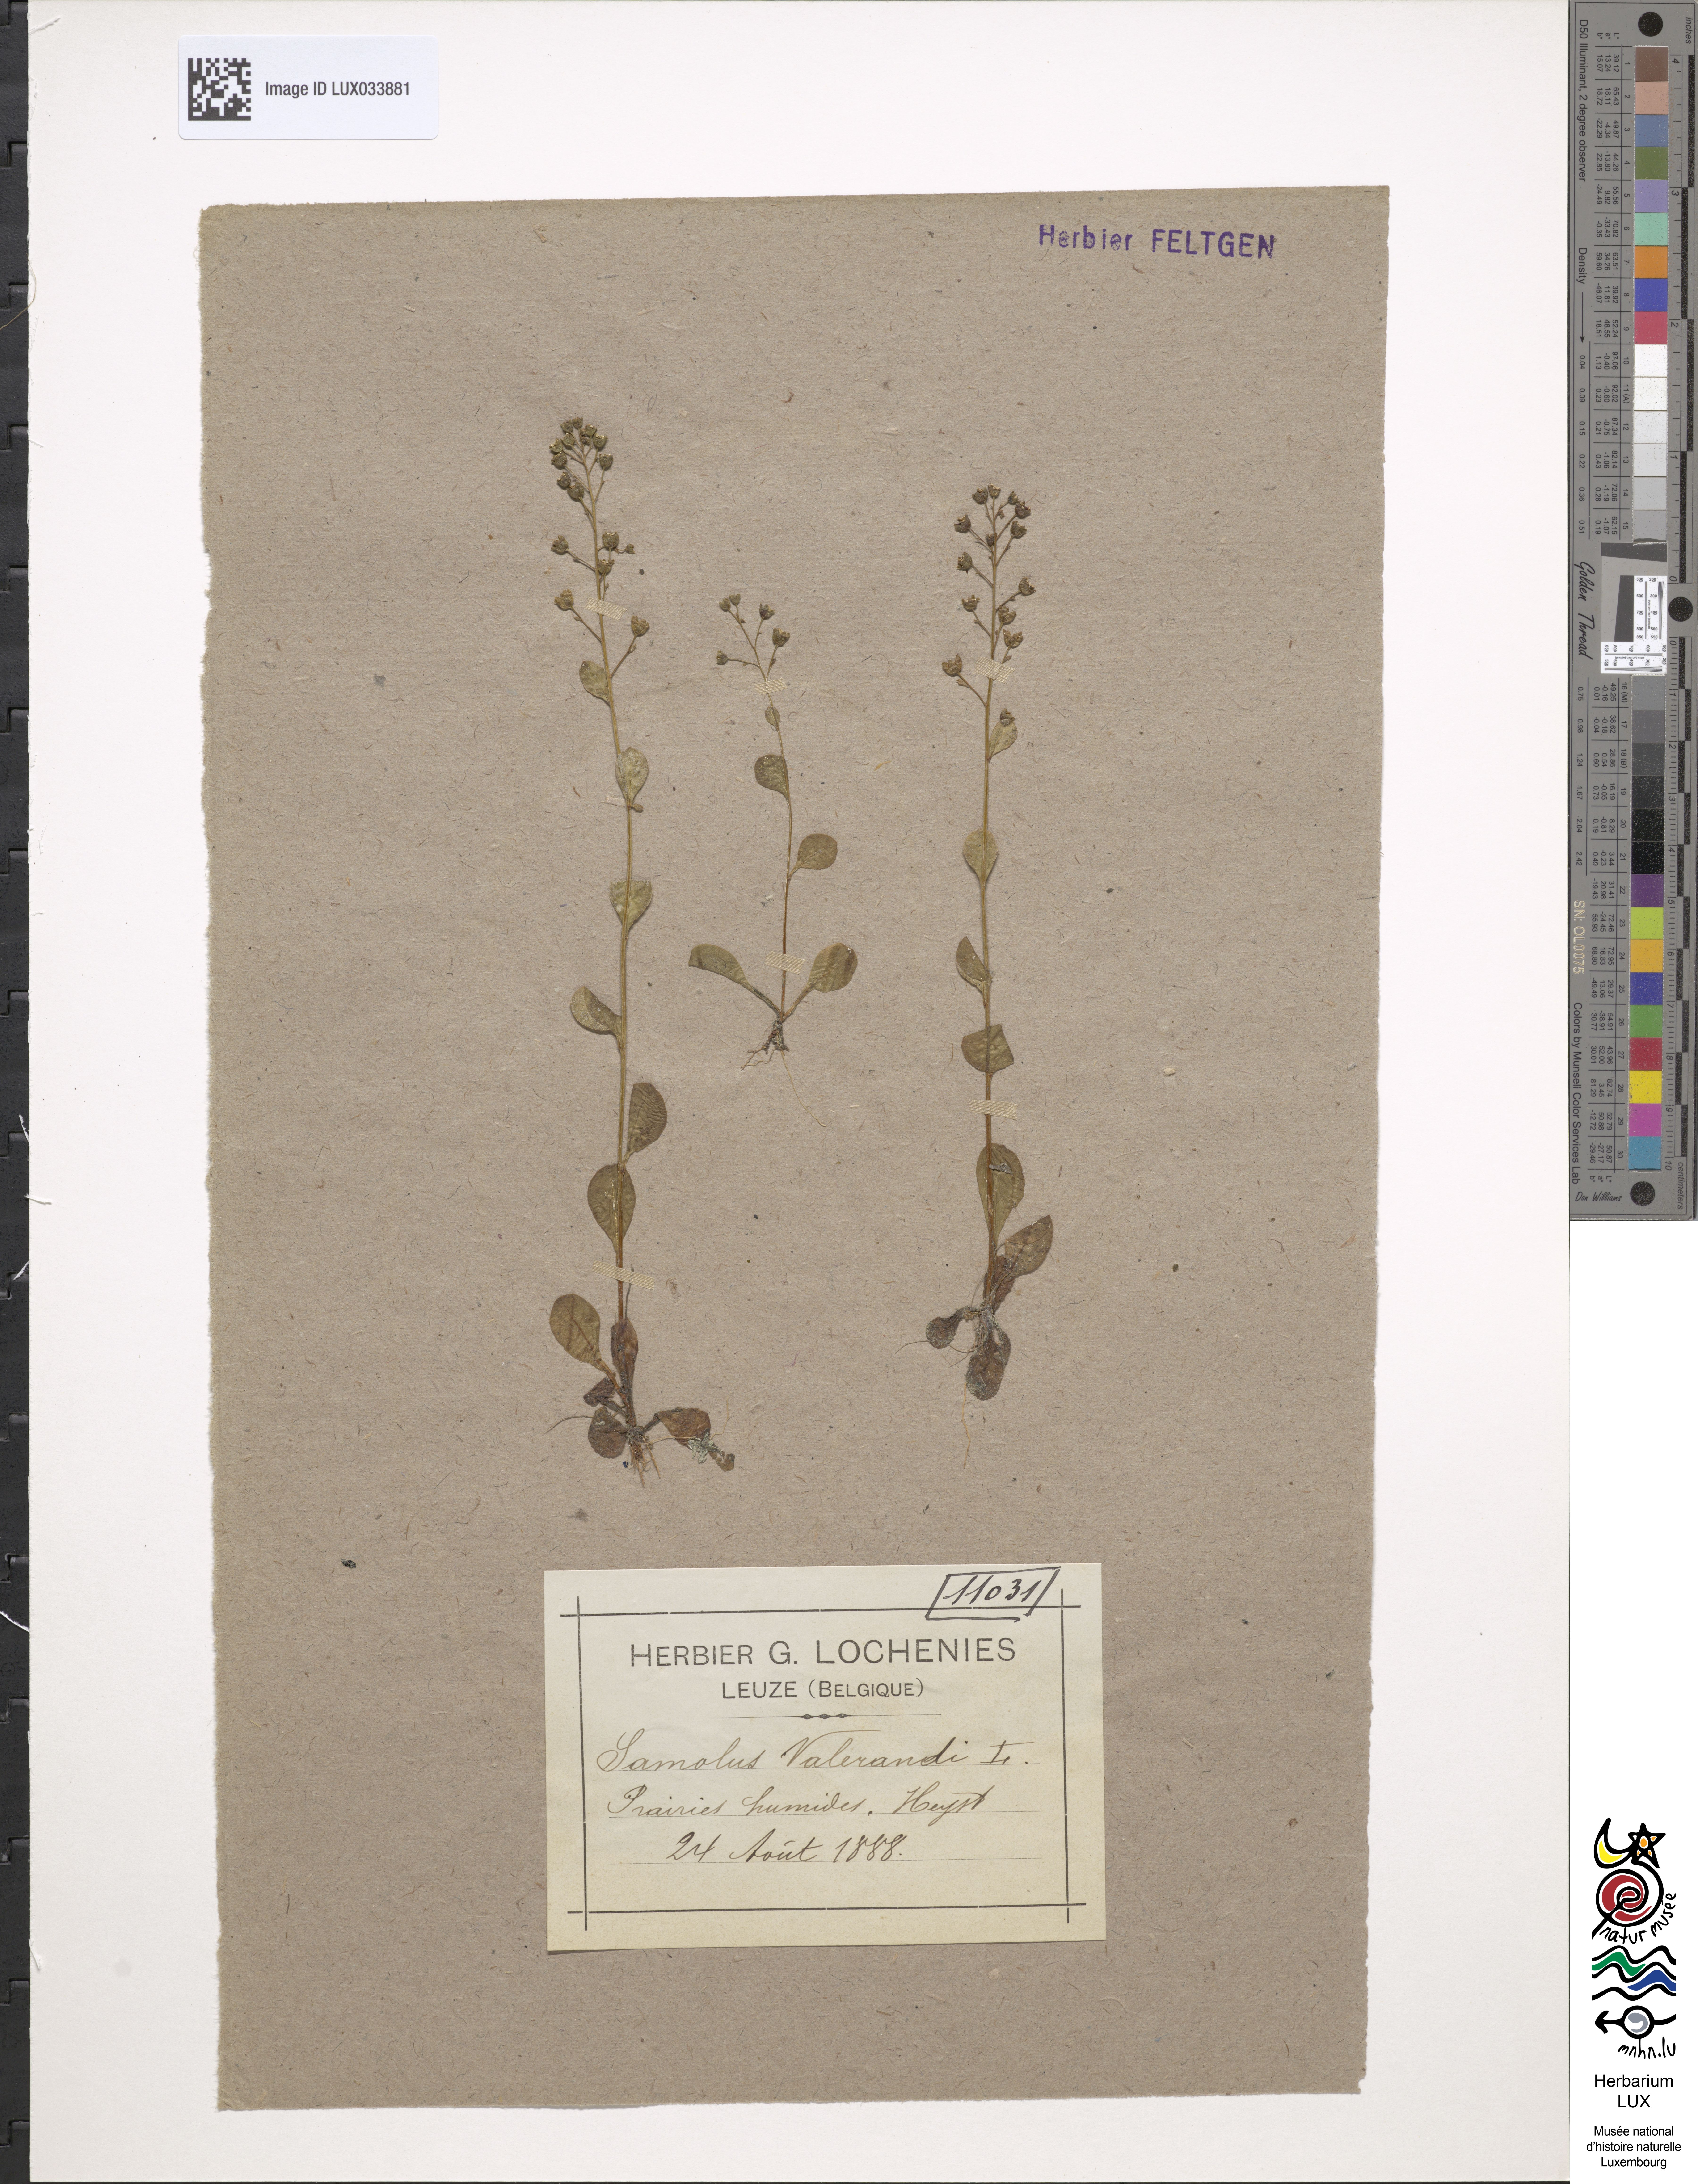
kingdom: Plantae
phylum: Tracheophyta
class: Magnoliopsida
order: Ericales
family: Primulaceae
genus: Samolus
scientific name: Samolus valerandi
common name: Brookweed
